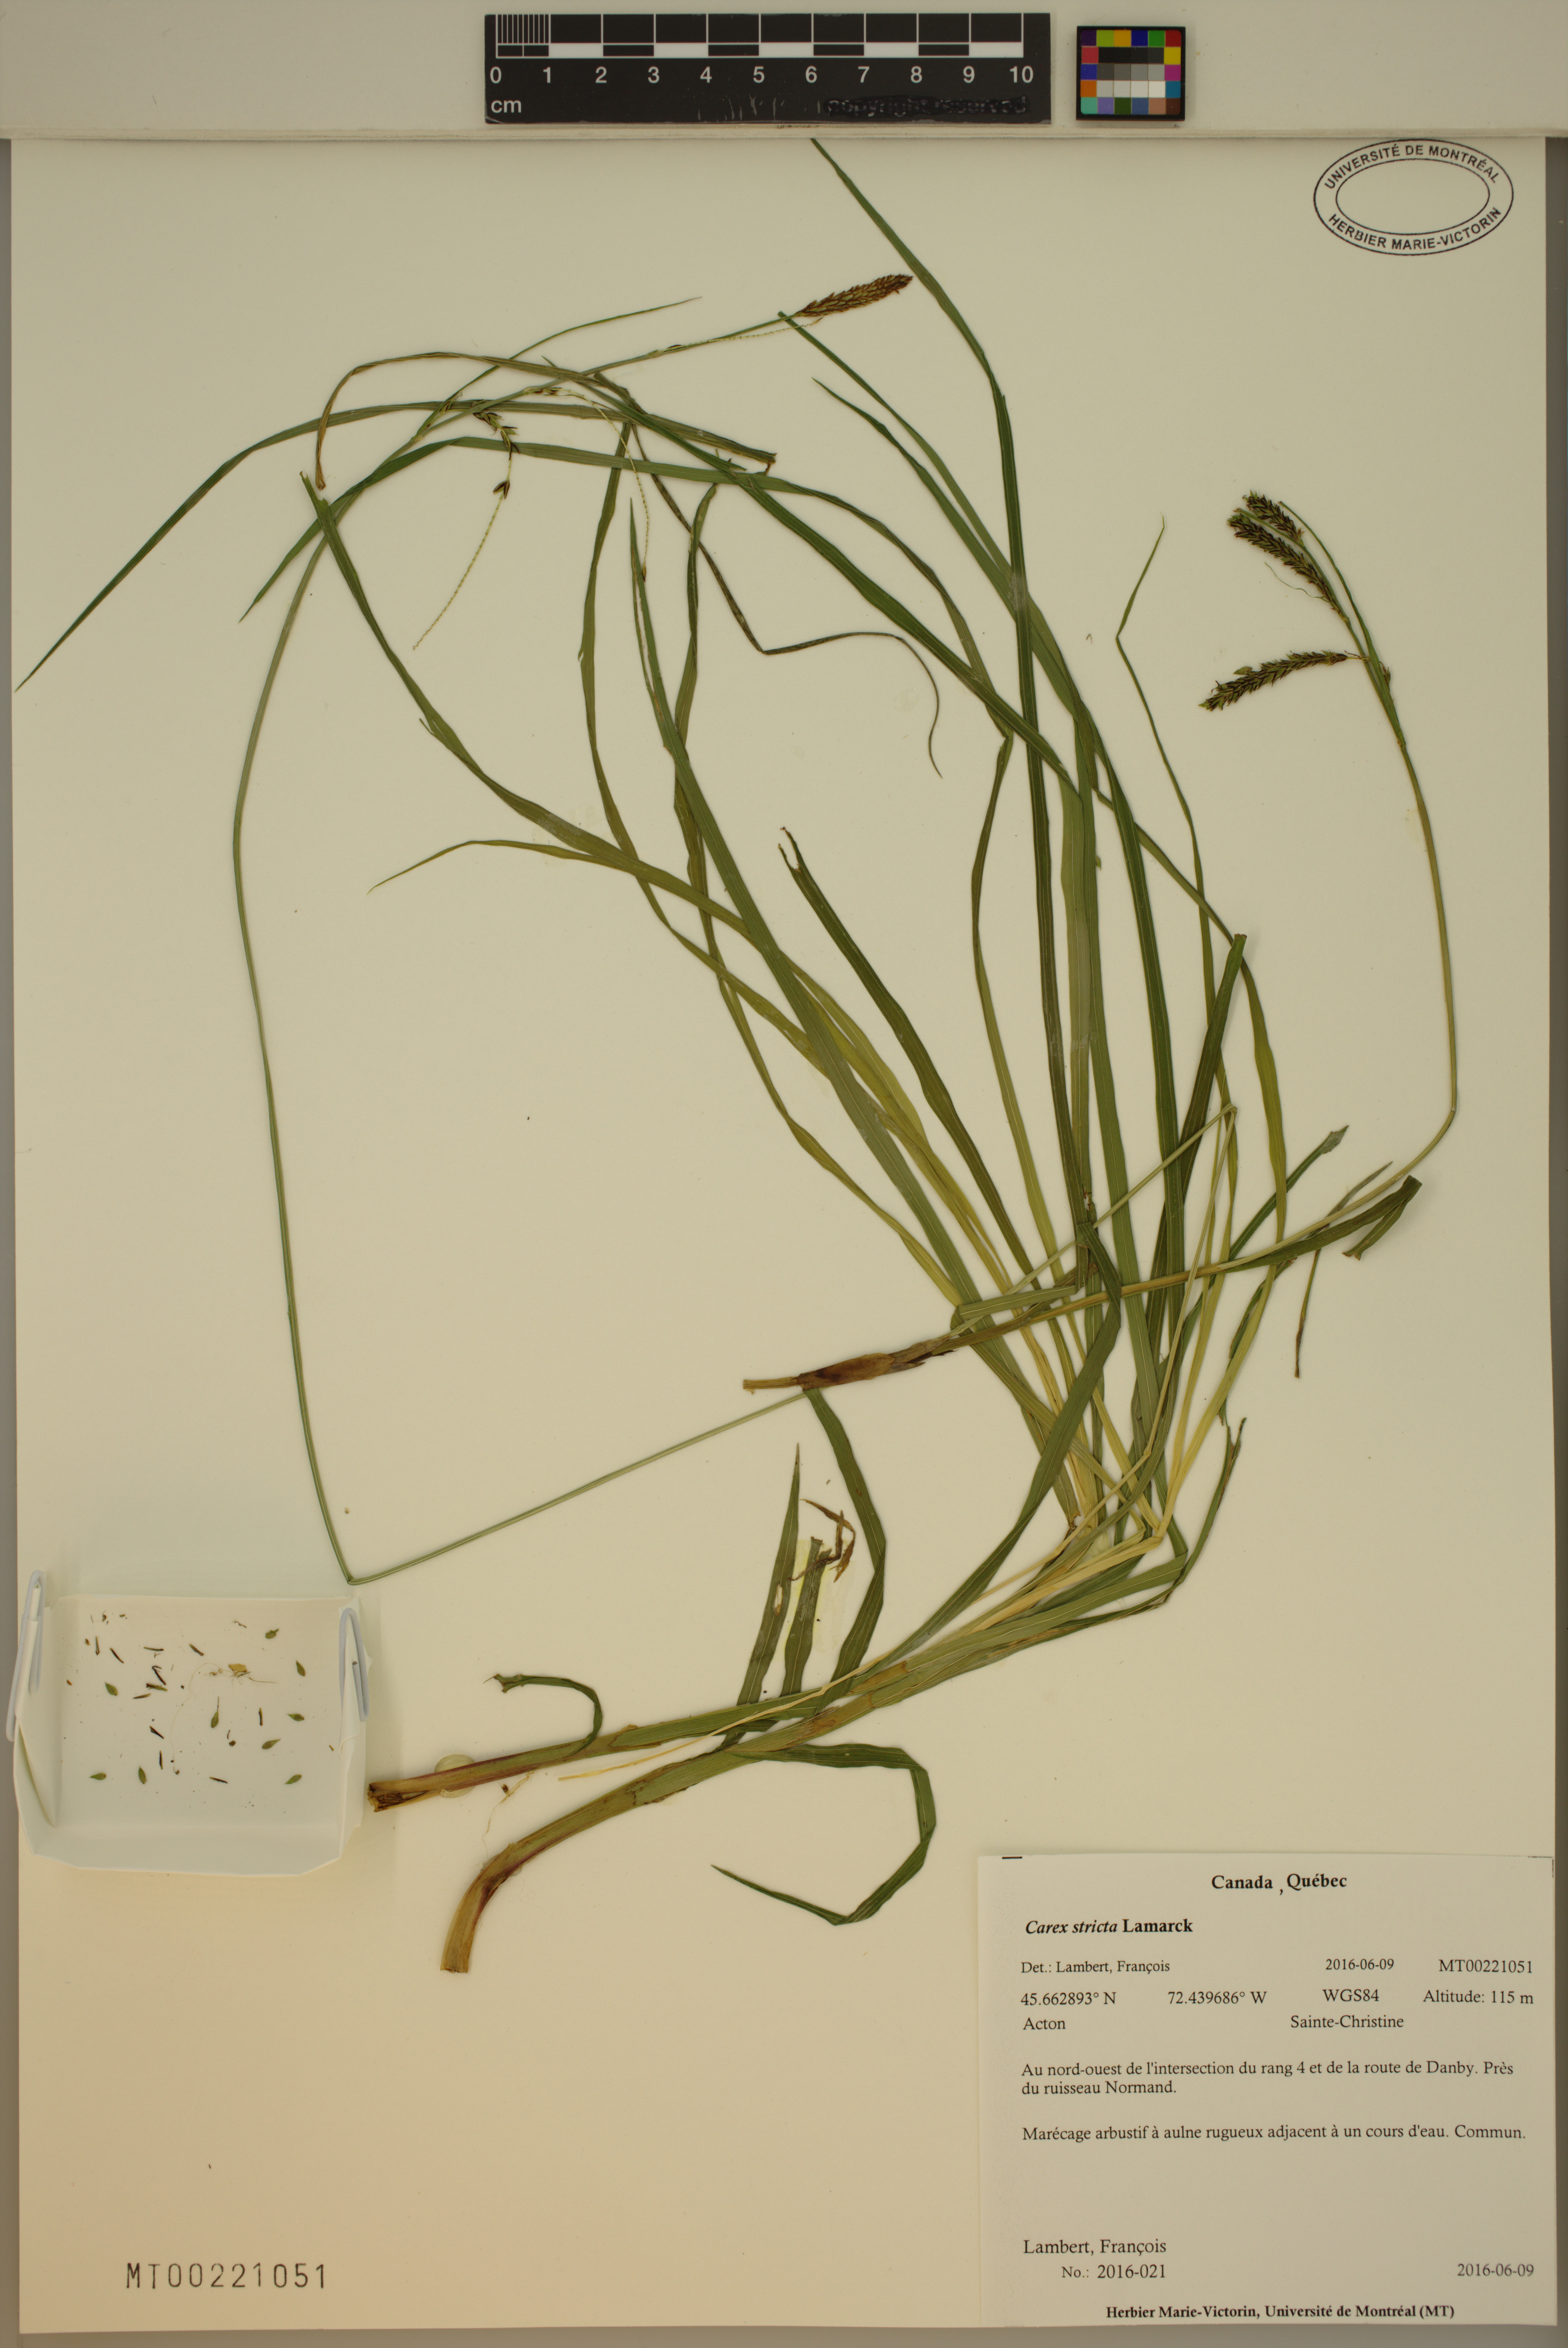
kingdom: Plantae
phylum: Tracheophyta
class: Liliopsida
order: Poales
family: Cyperaceae
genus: Carex
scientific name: Carex stricta
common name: Hummock sedge
